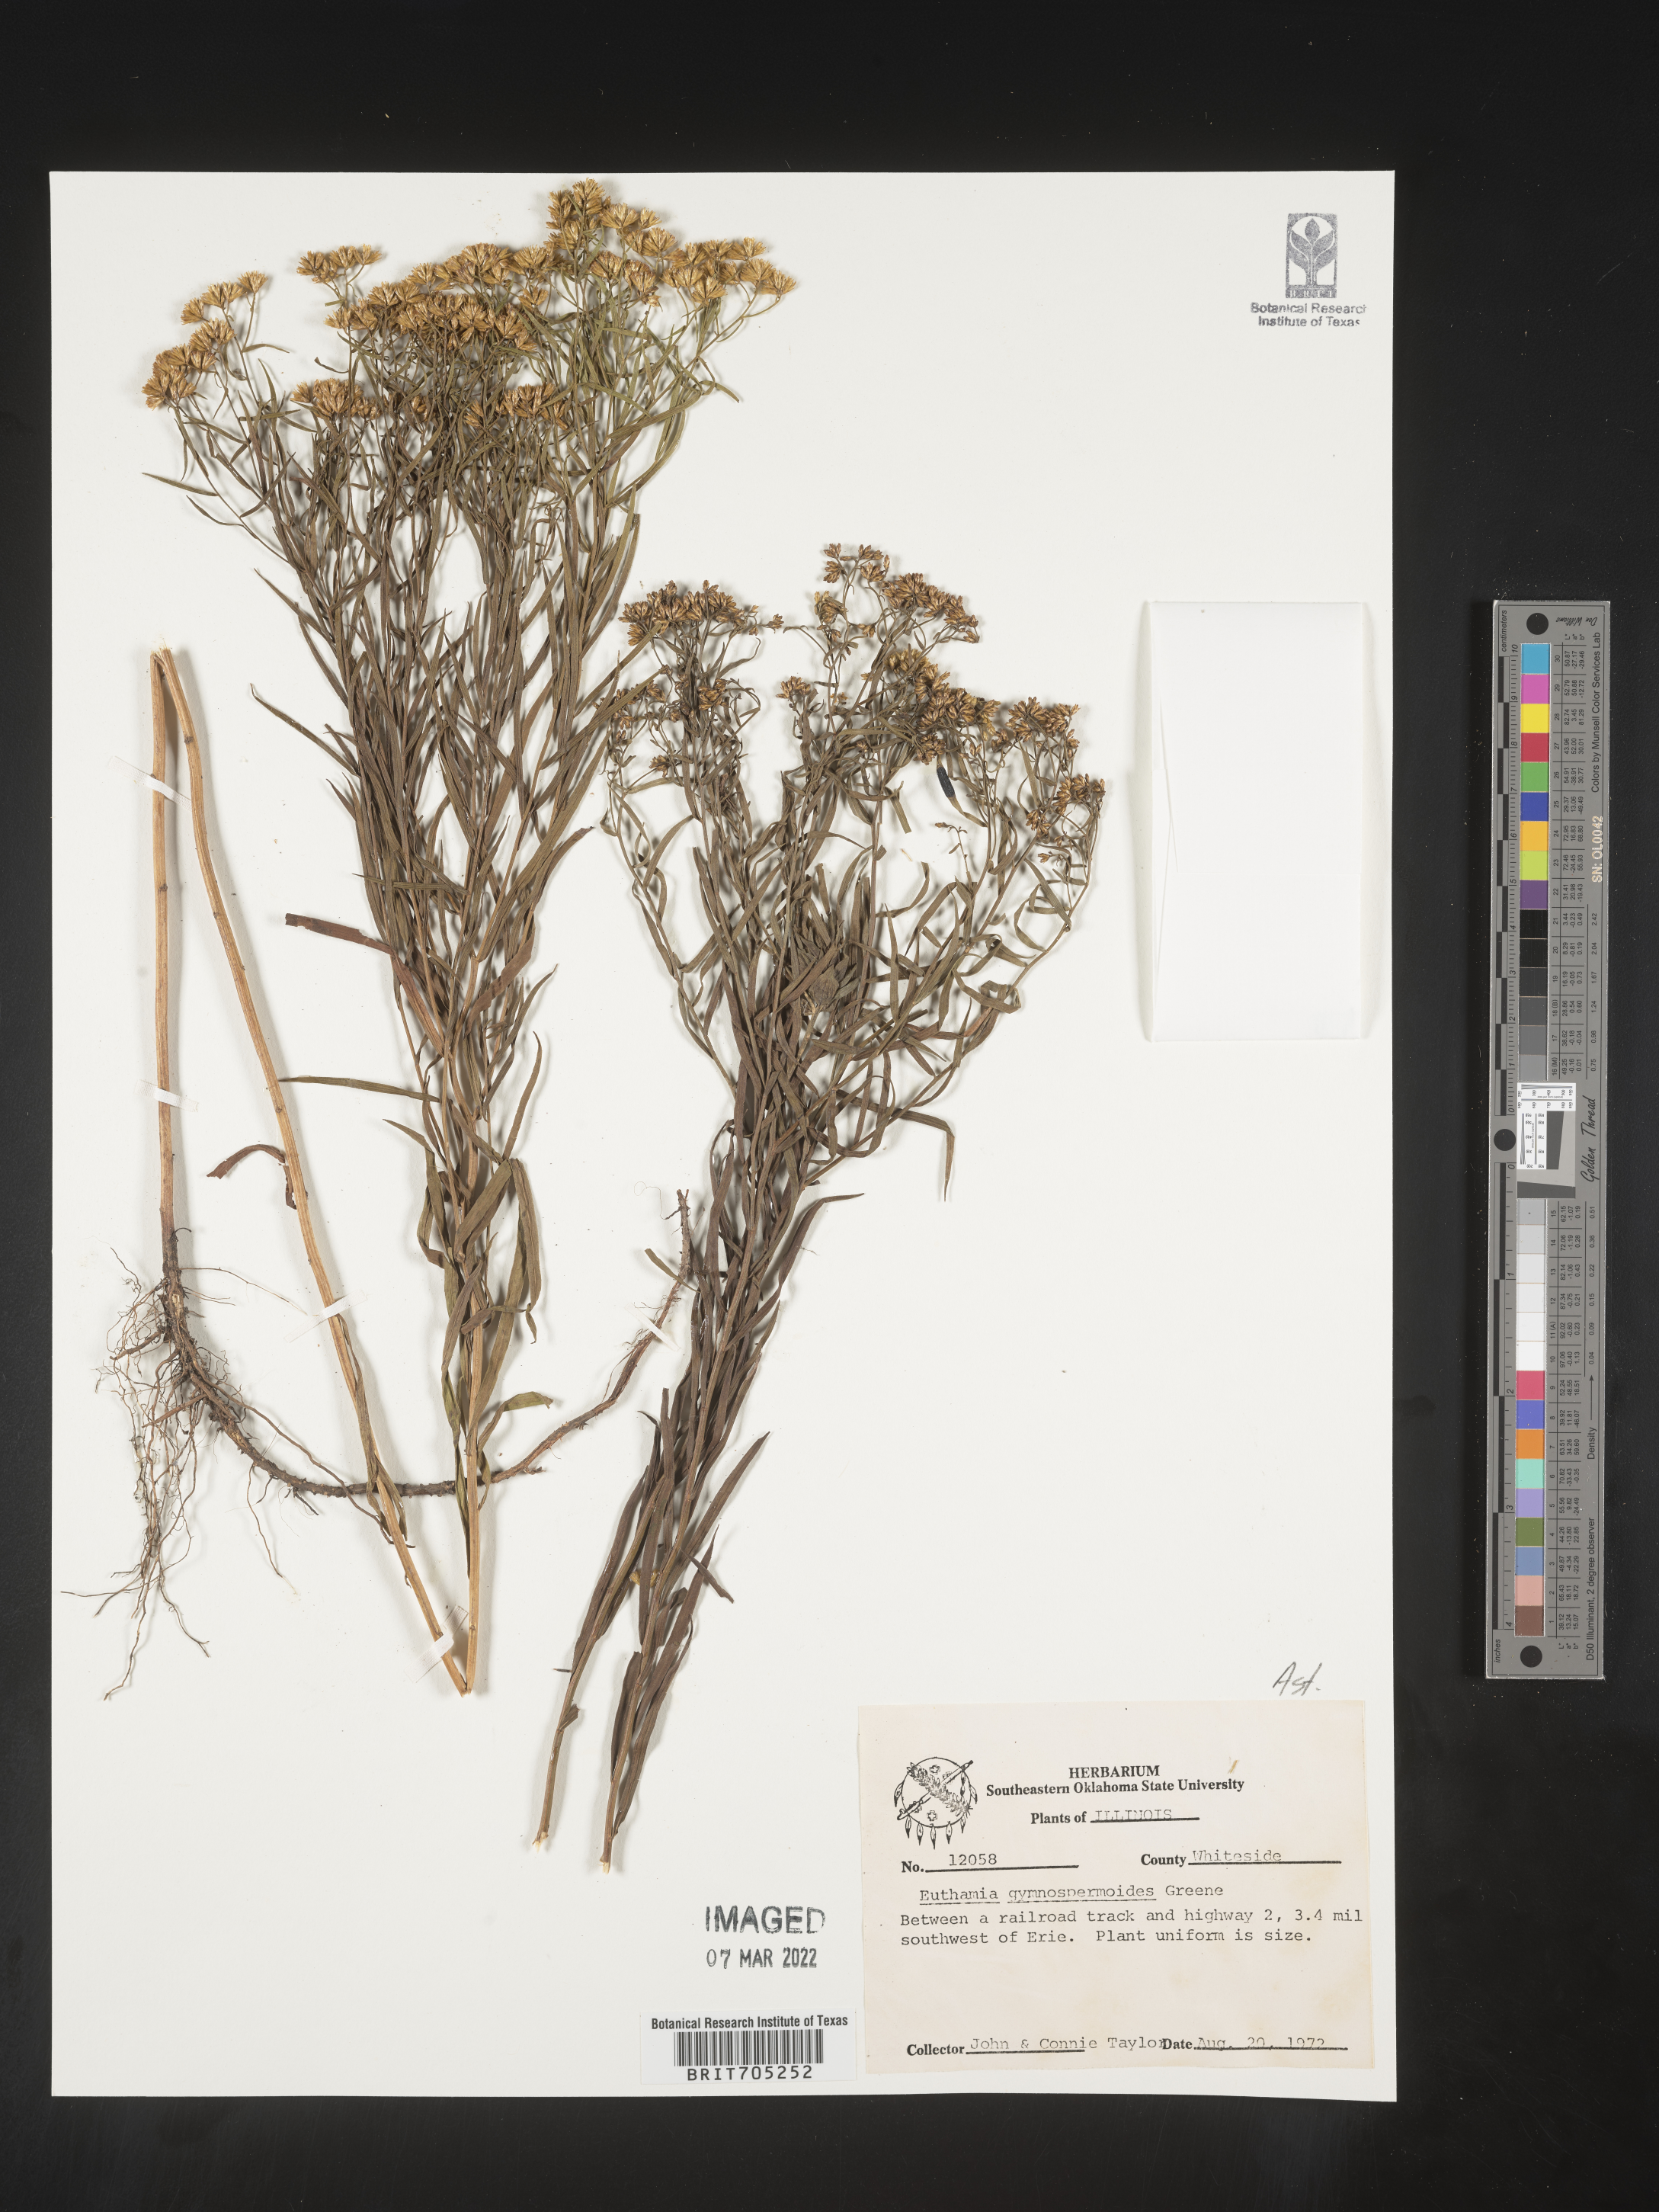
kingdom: Plantae
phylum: Tracheophyta
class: Magnoliopsida
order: Asterales
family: Asteraceae
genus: Euthamia
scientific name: Euthamia gymnospermoides
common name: Great plains goldentop
